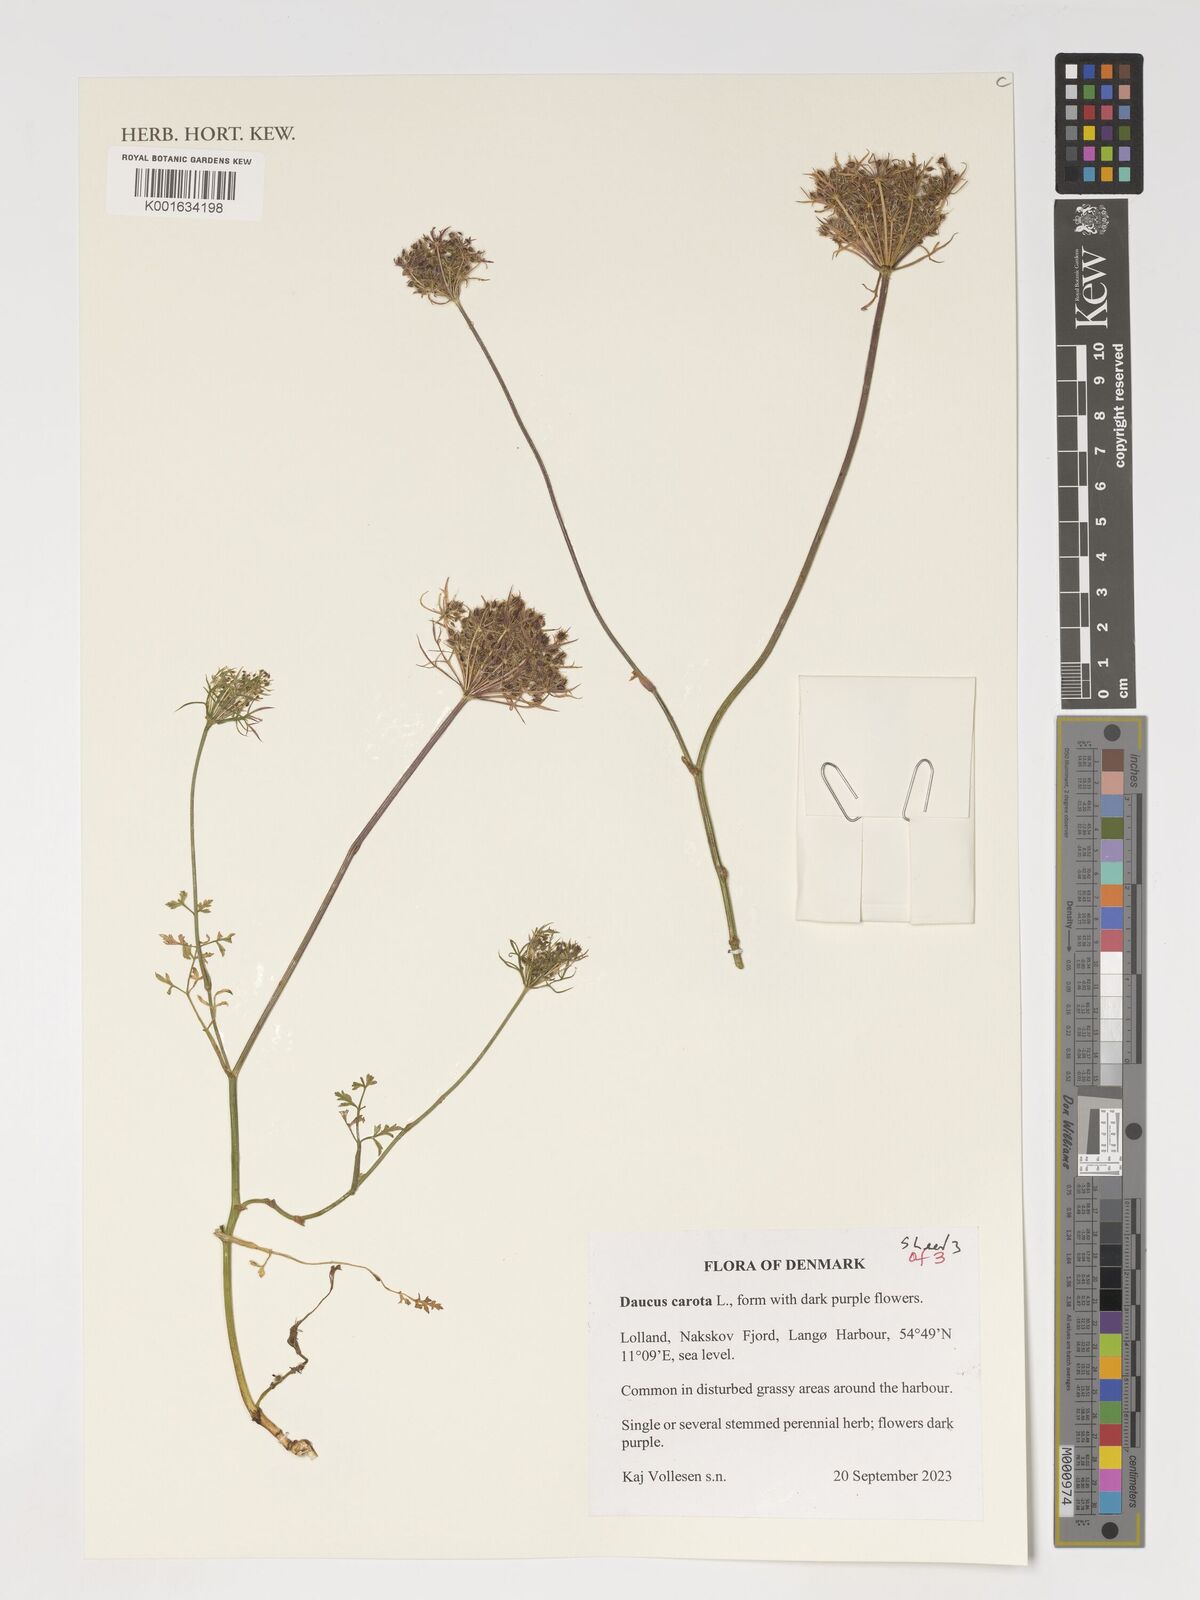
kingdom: Plantae
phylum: Tracheophyta
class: Magnoliopsida
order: Apiales
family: Apiaceae
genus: Daucus
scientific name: Daucus carota
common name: Wild carrot
